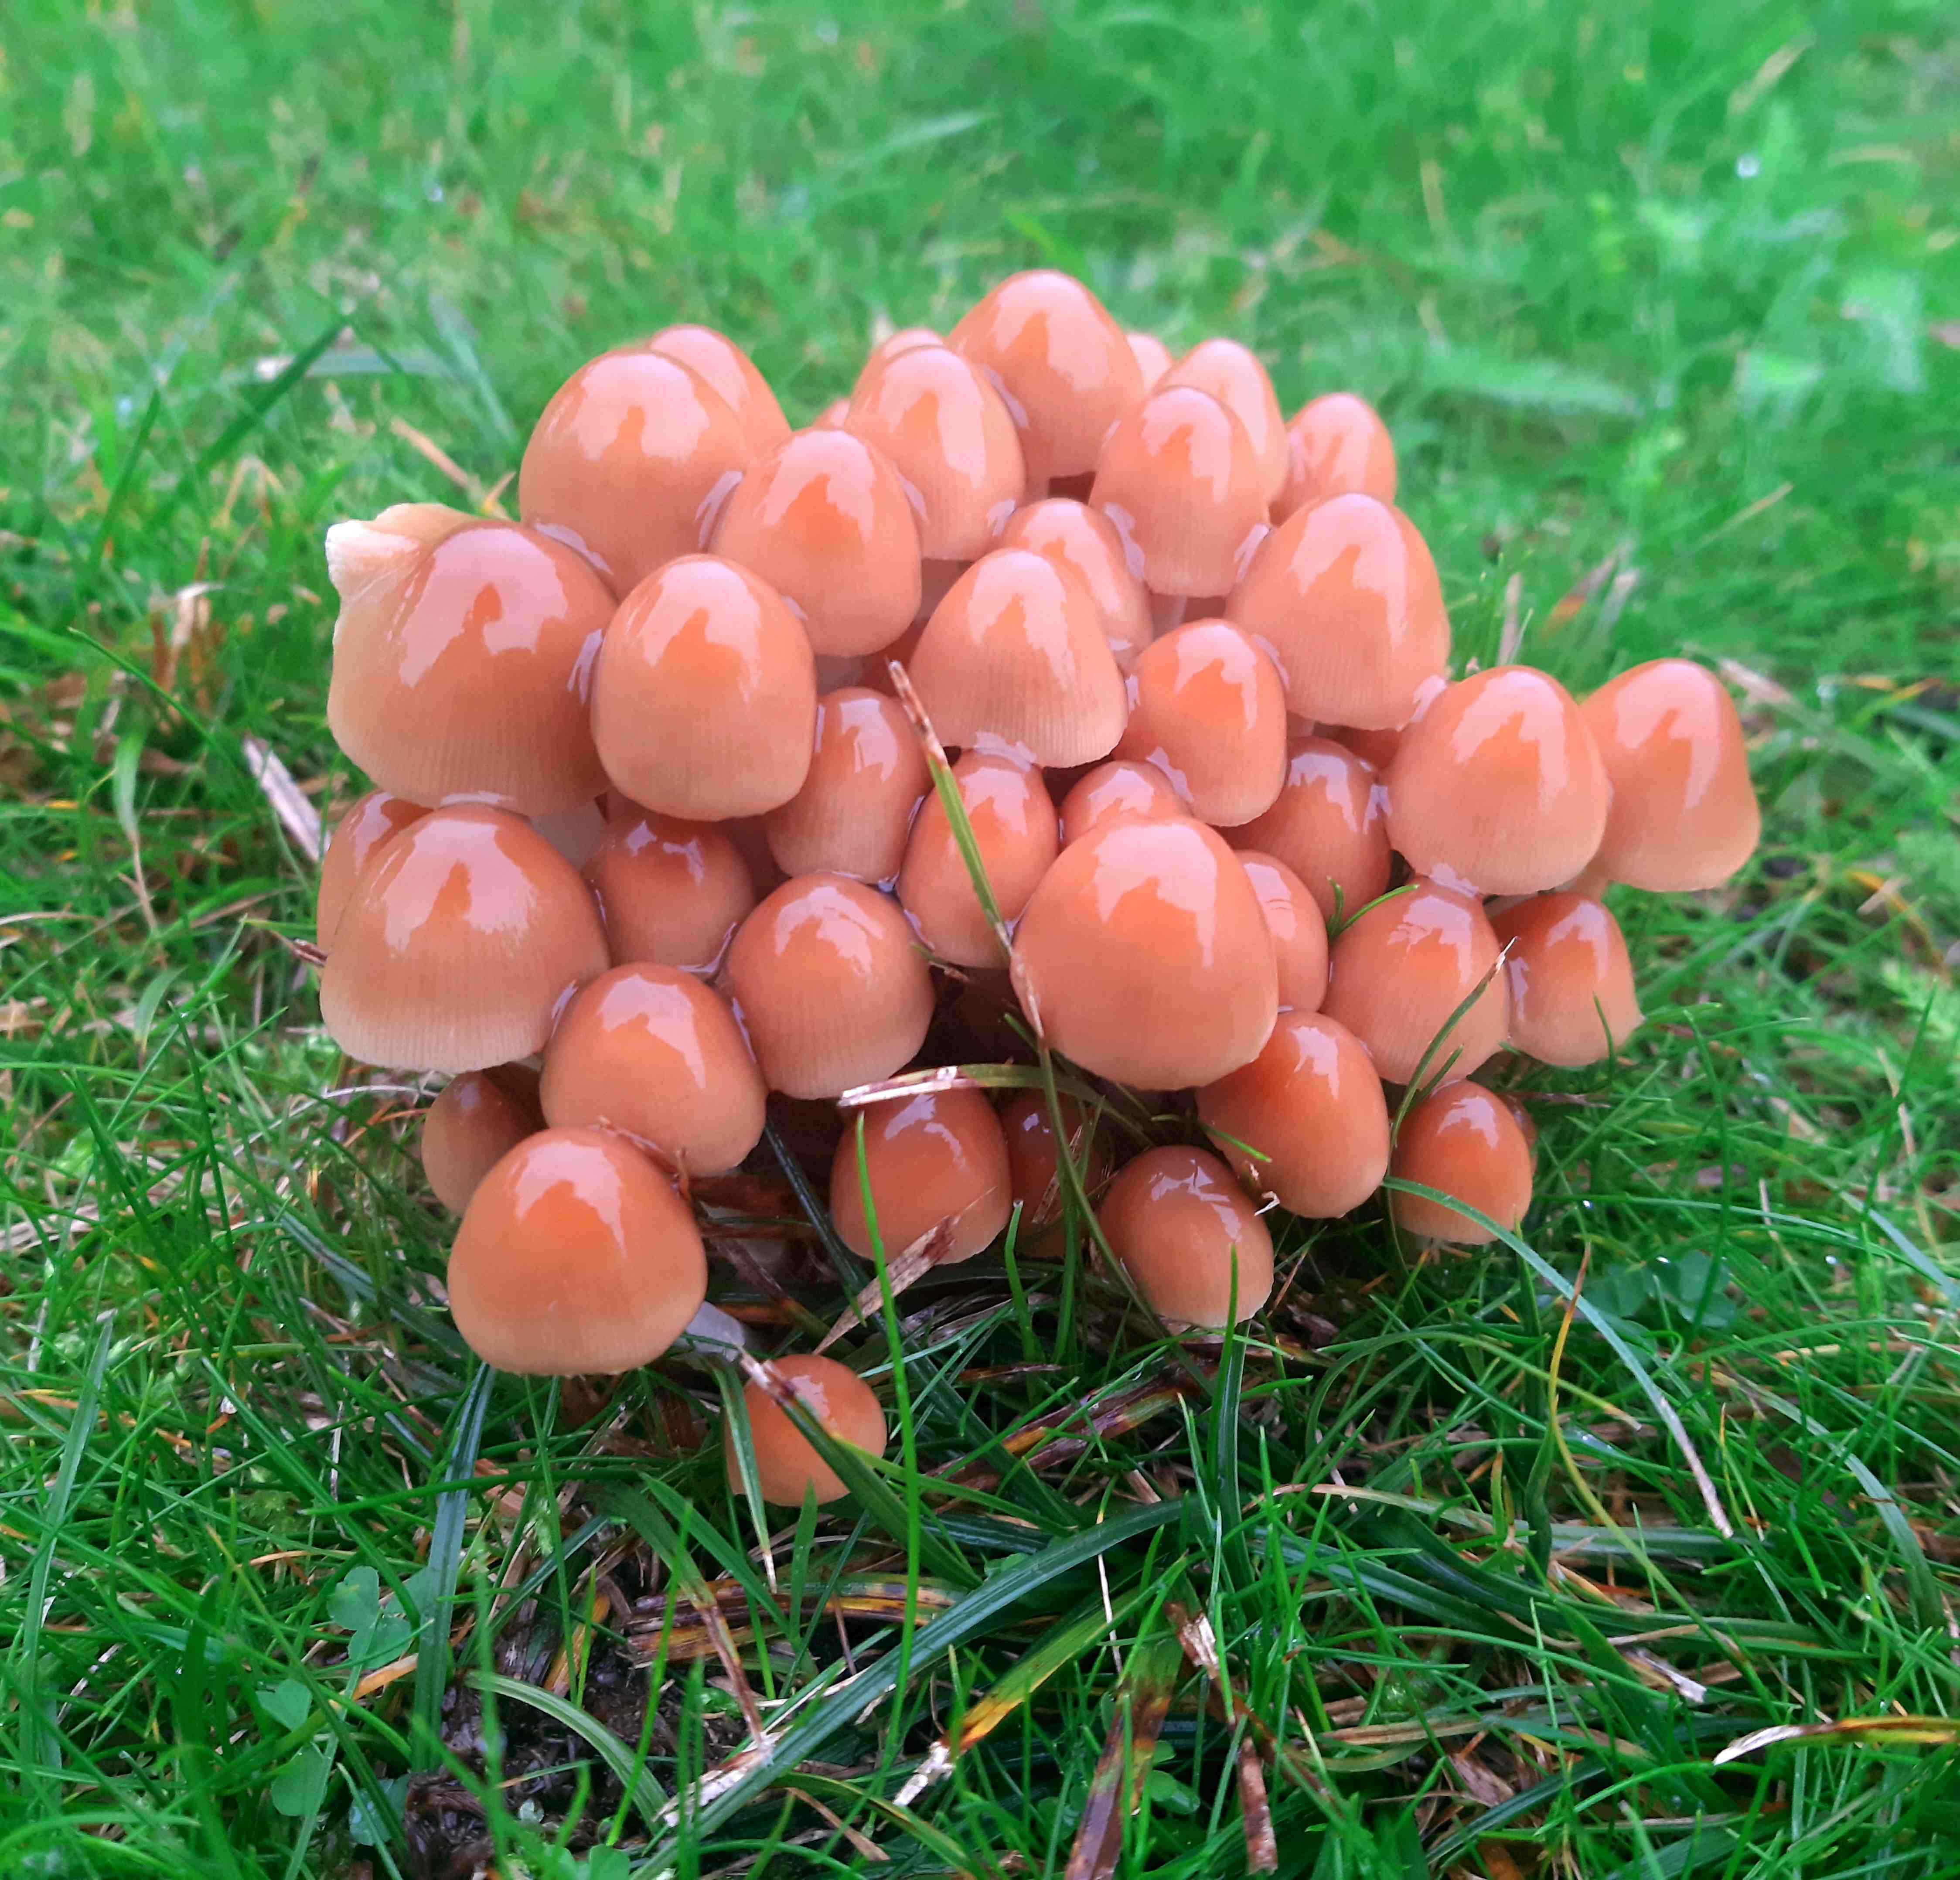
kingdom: Fungi
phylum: Basidiomycota
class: Agaricomycetes
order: Agaricales
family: Psathyrellaceae
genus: Britzelmayria
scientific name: Britzelmayria multipedata
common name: knippe-mørkhat
